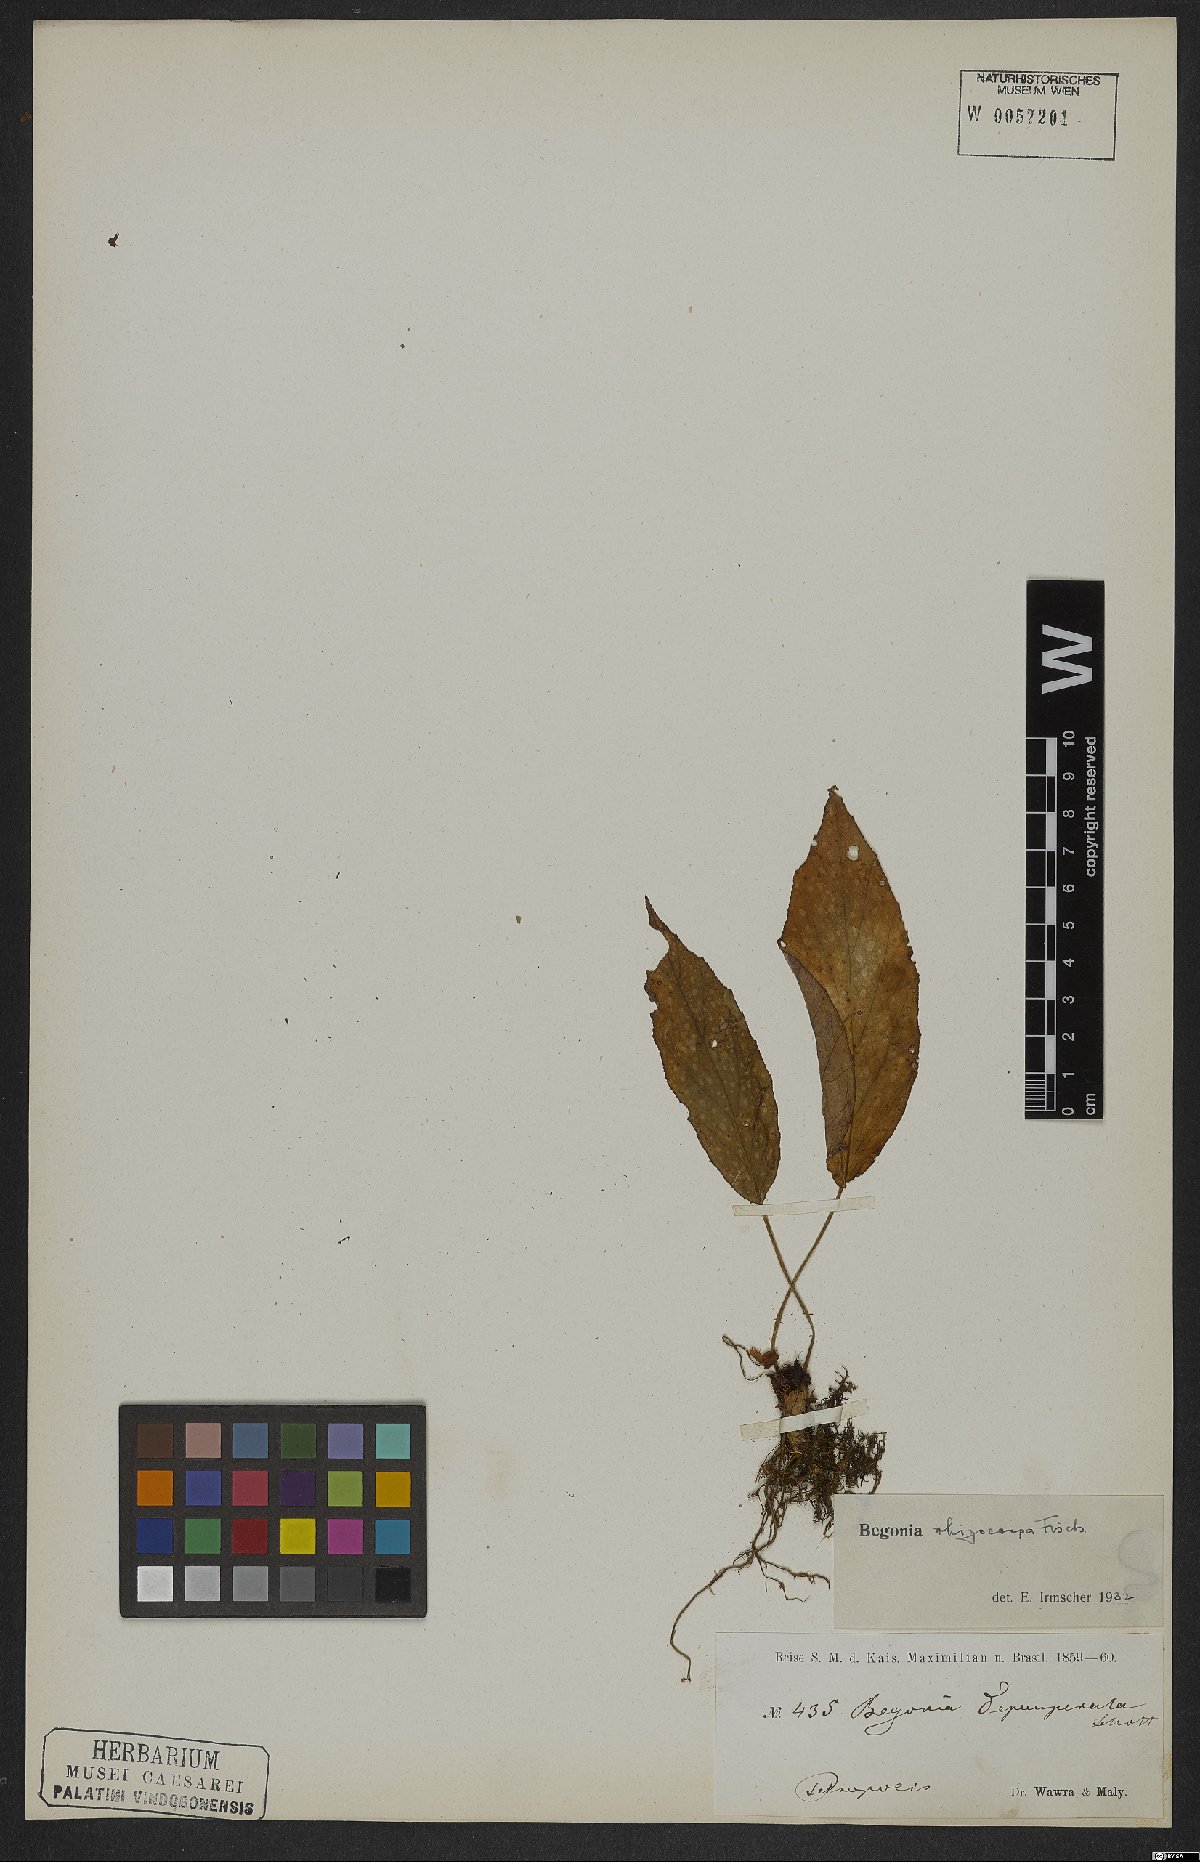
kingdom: Plantae
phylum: Tracheophyta
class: Magnoliopsida
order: Cucurbitales
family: Begoniaceae
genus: Begonia
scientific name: Begonia depauperata
